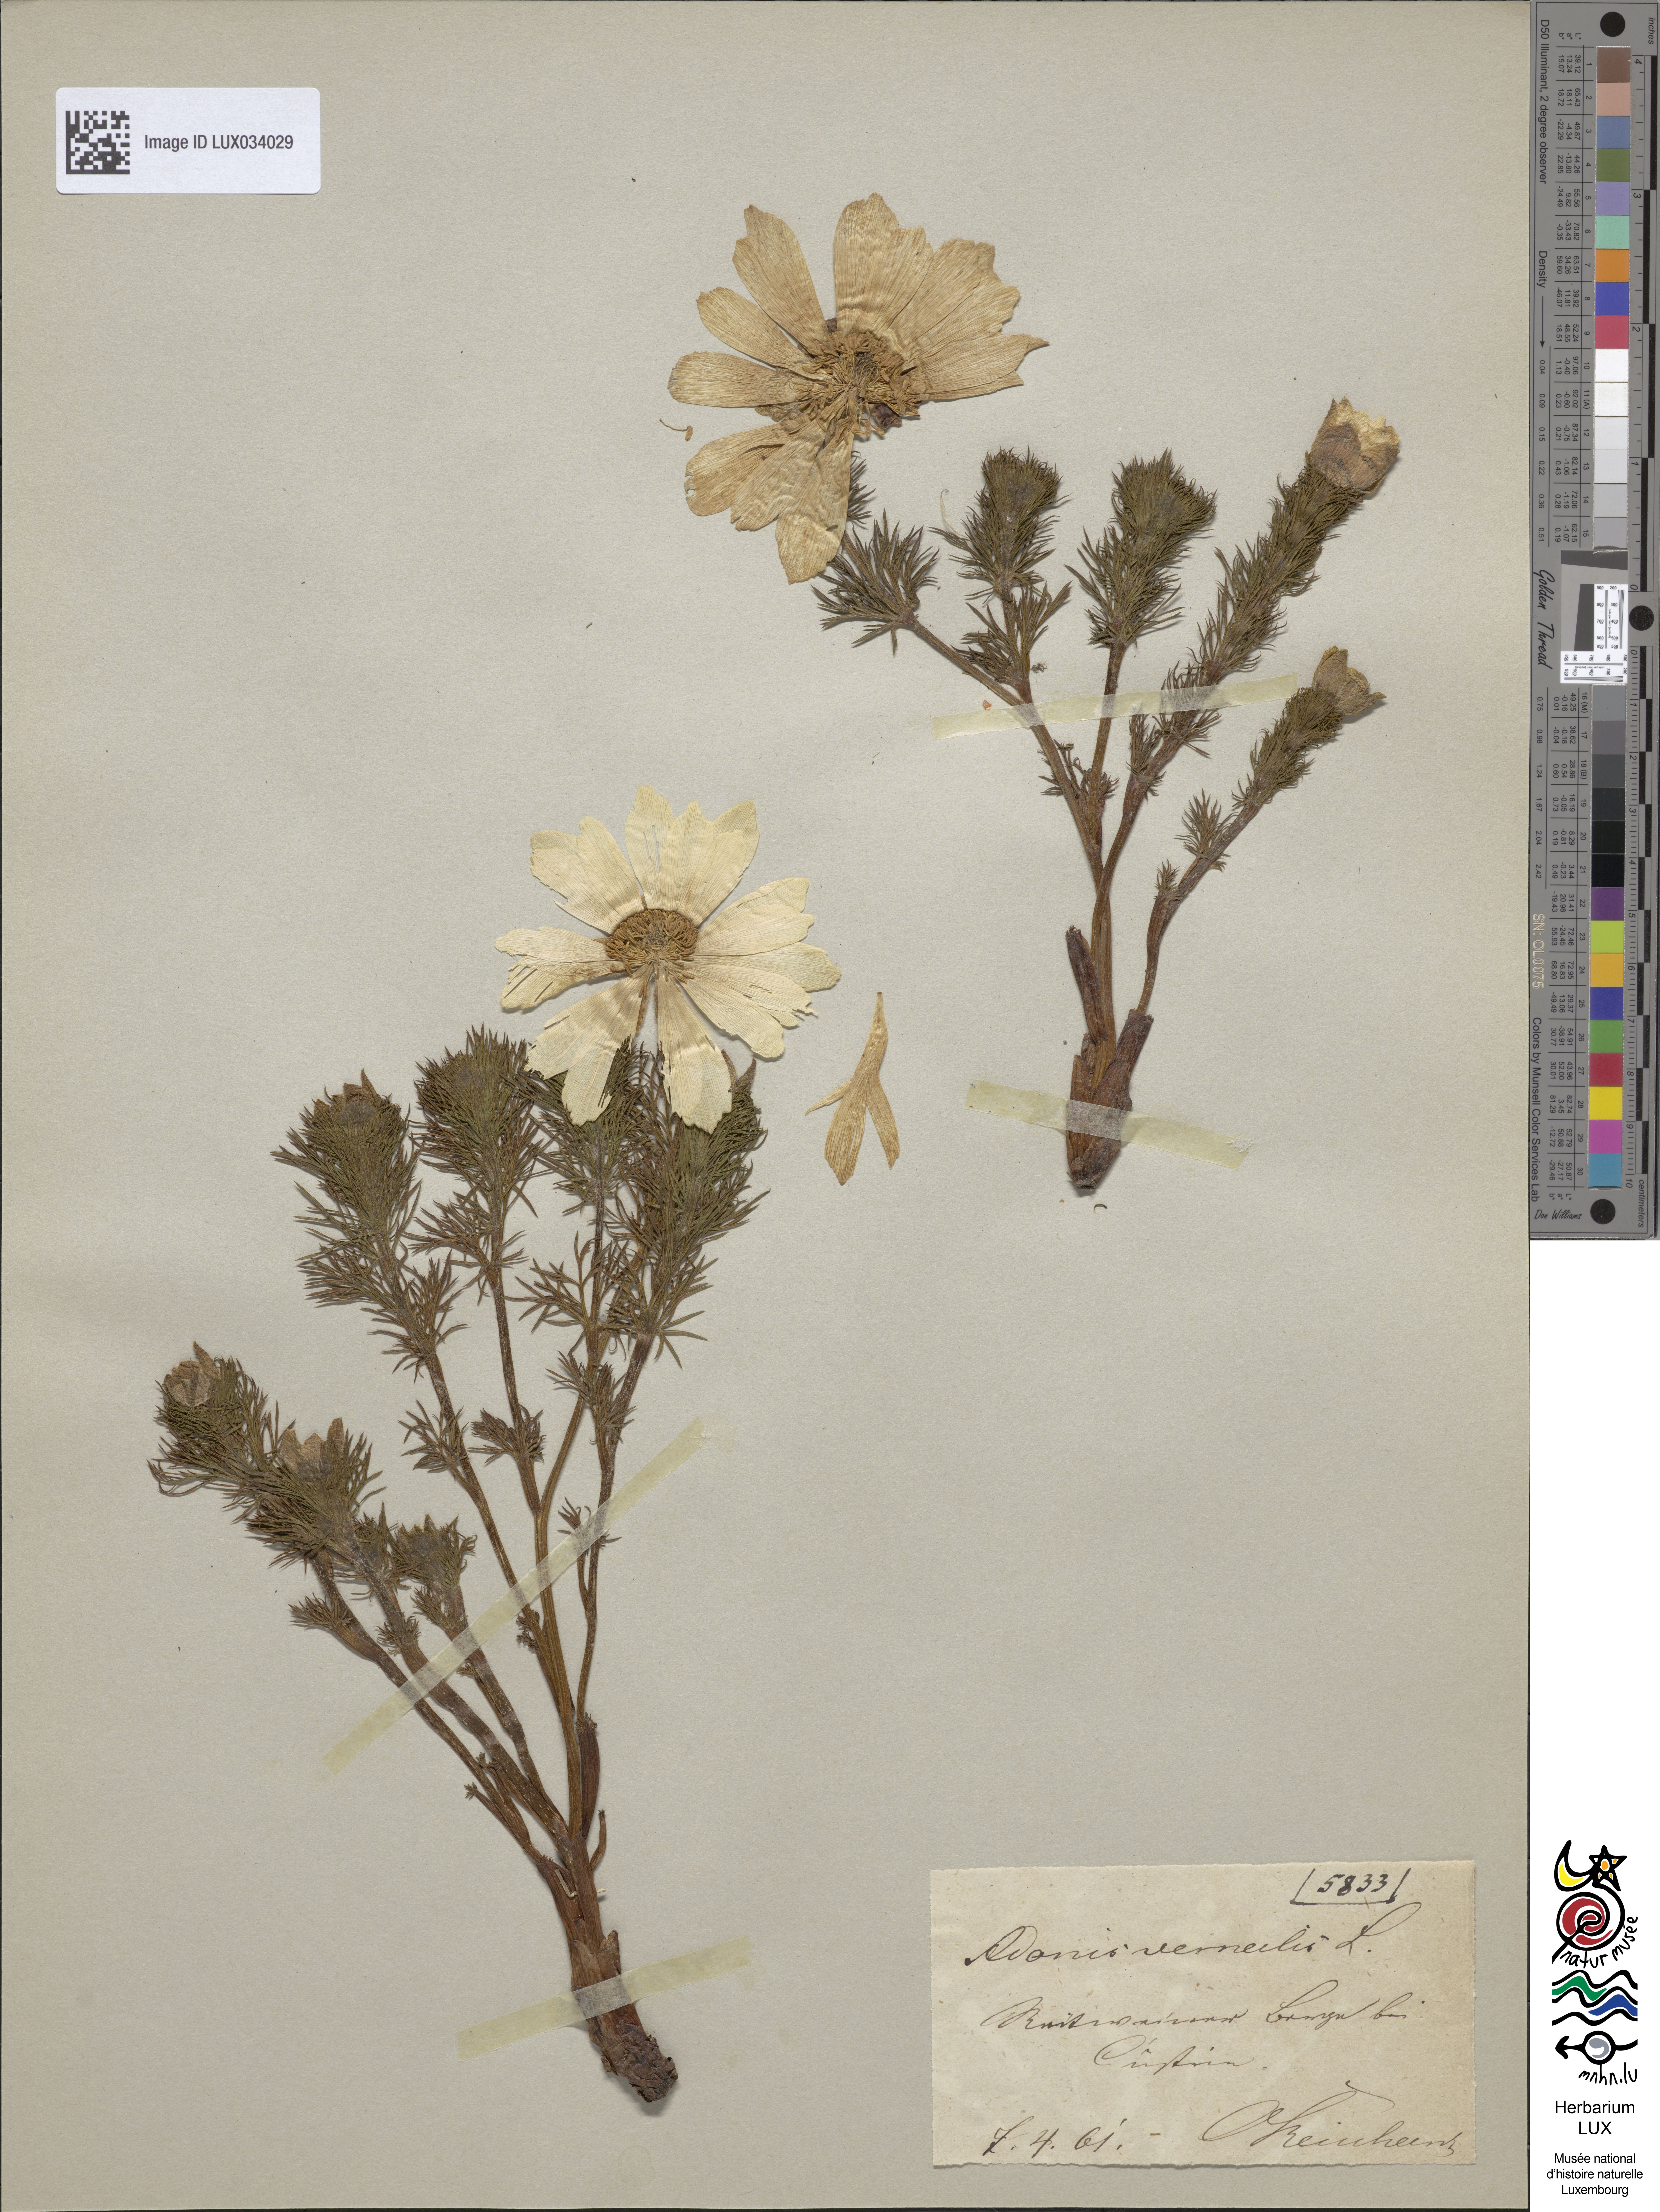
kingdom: Plantae
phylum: Tracheophyta
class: Magnoliopsida
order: Ranunculales
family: Ranunculaceae
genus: Adonis
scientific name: Adonis vernalis
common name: Yellow pheasants-eye
